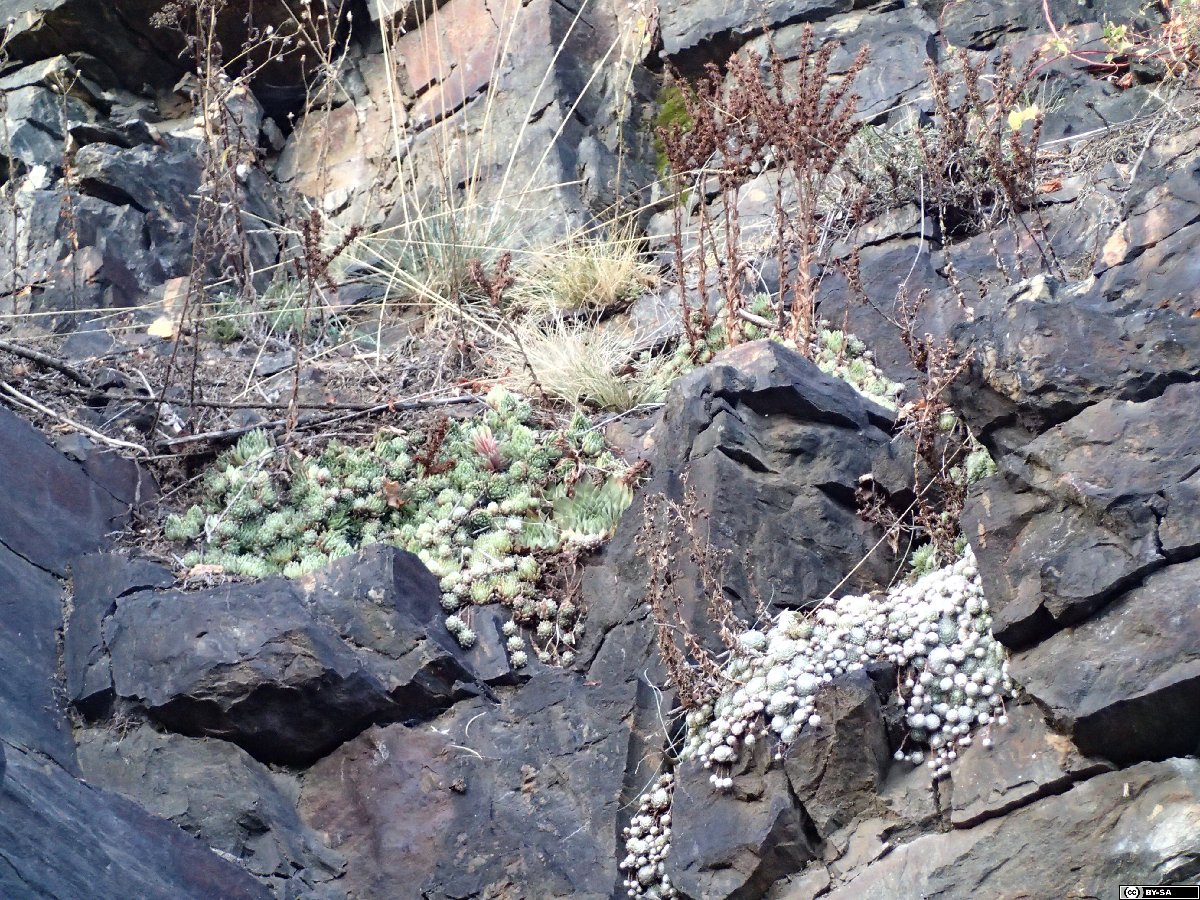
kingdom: Plantae
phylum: Tracheophyta
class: Magnoliopsida
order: Saxifragales
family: Crassulaceae
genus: Sempervivum
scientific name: Sempervivum arachnoideum
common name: Cobweb house-leek
